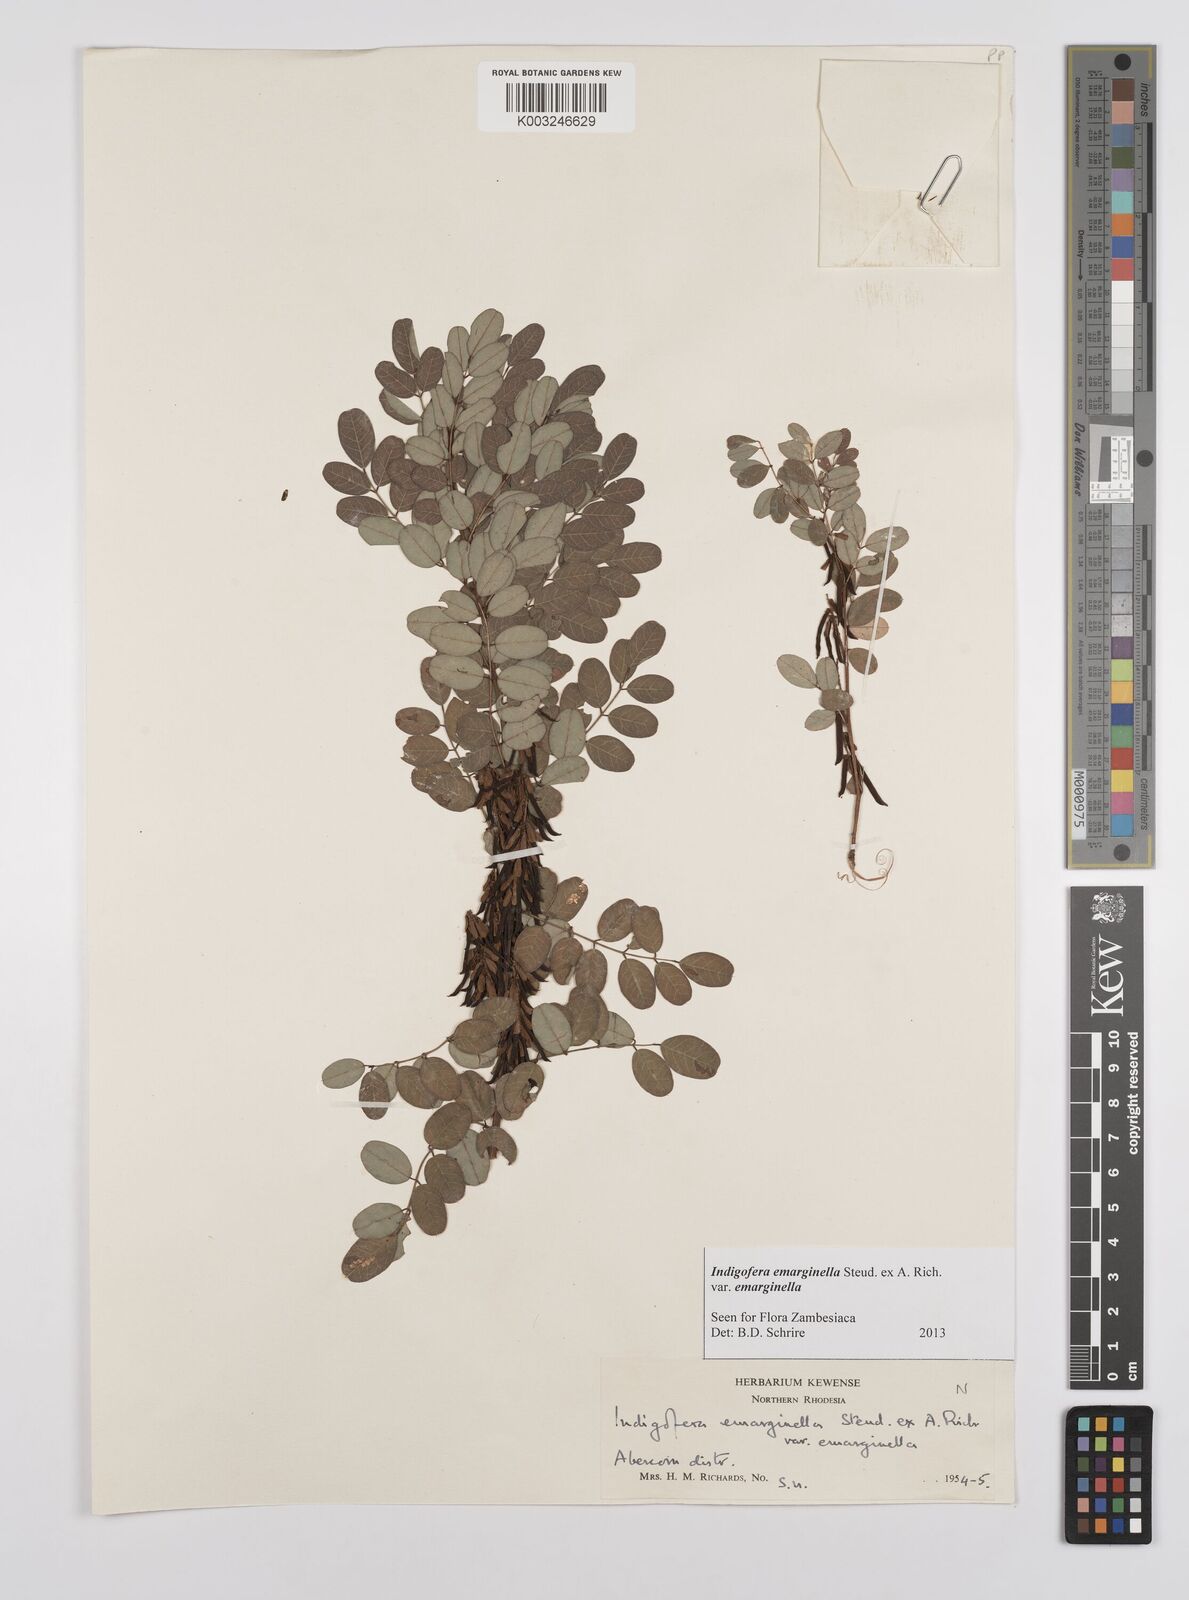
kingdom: Plantae
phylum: Tracheophyta
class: Magnoliopsida
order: Fabales
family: Fabaceae
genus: Indigofera
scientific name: Indigofera emarginella
